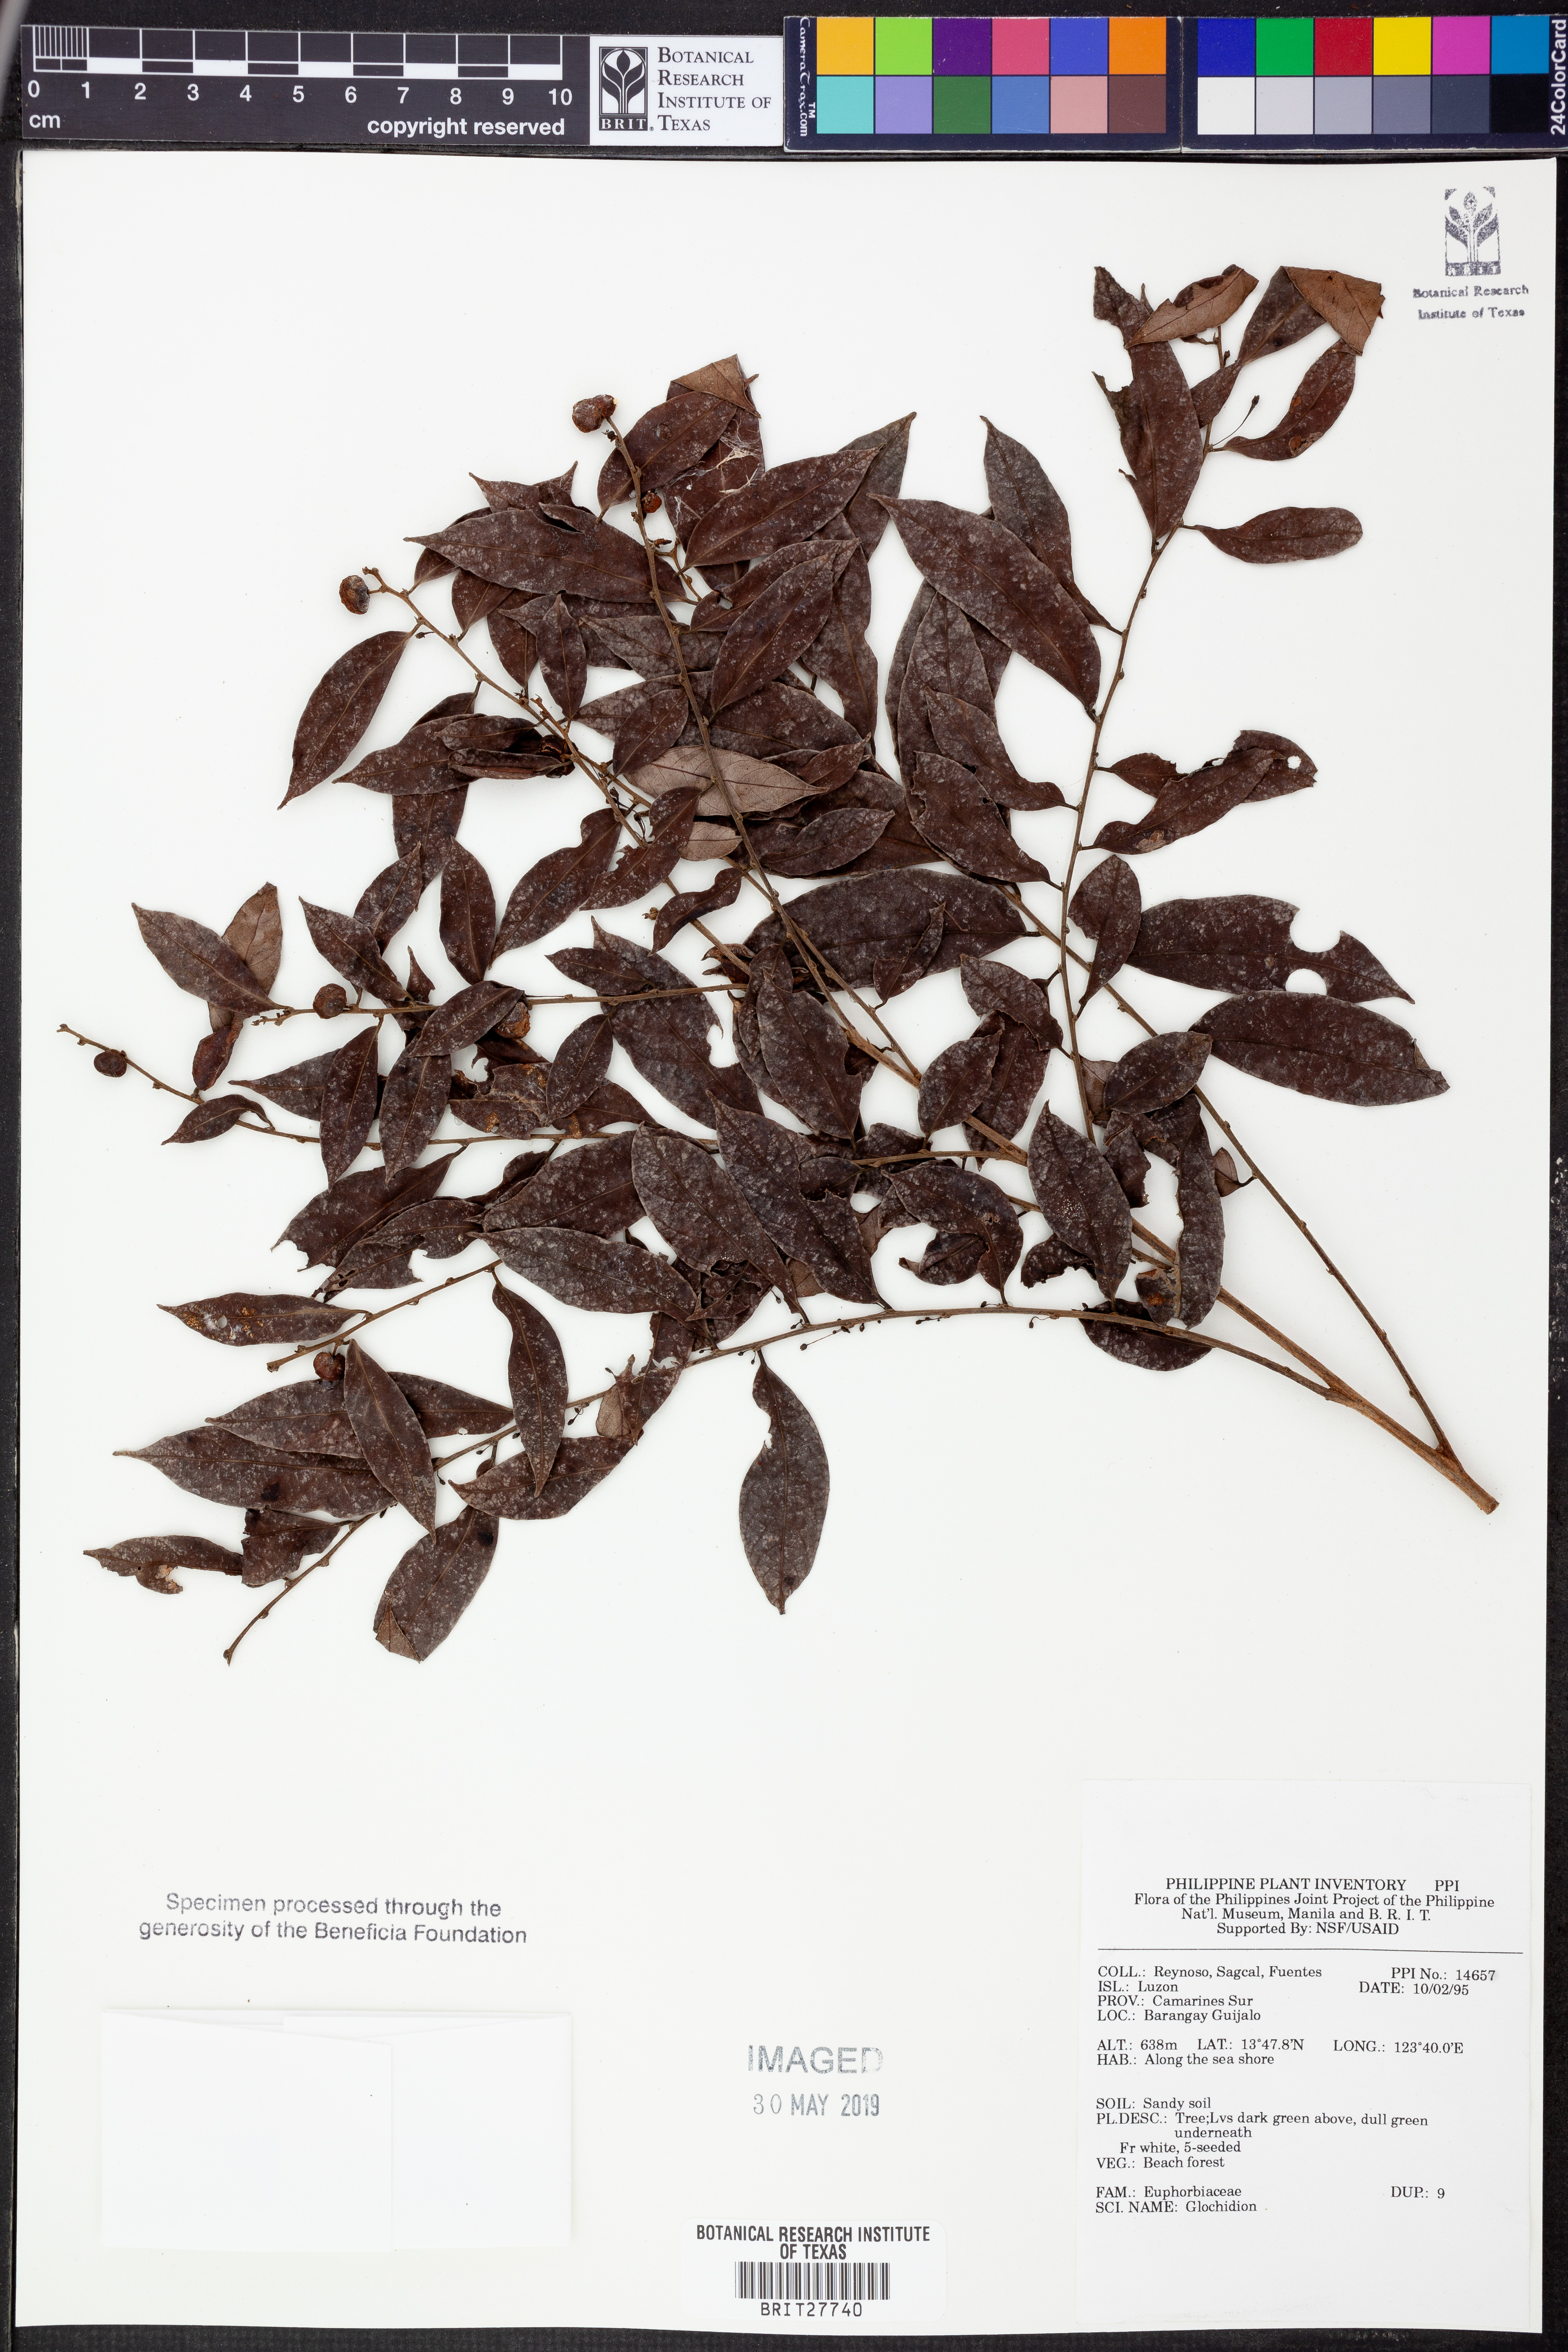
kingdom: Plantae
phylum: Tracheophyta
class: Magnoliopsida
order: Malpighiales
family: Phyllanthaceae
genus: Glochidion
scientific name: Glochidion
